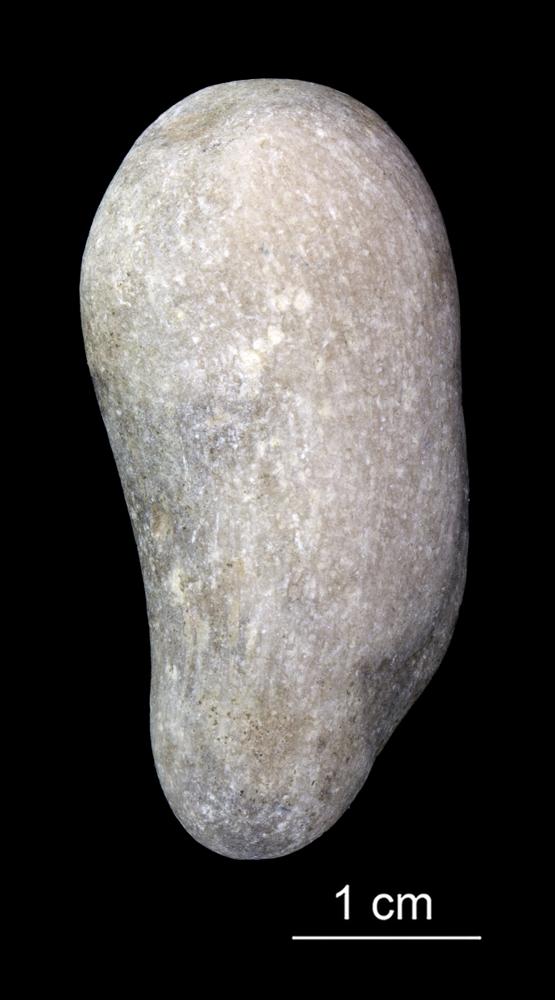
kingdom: Animalia
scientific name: Animalia
